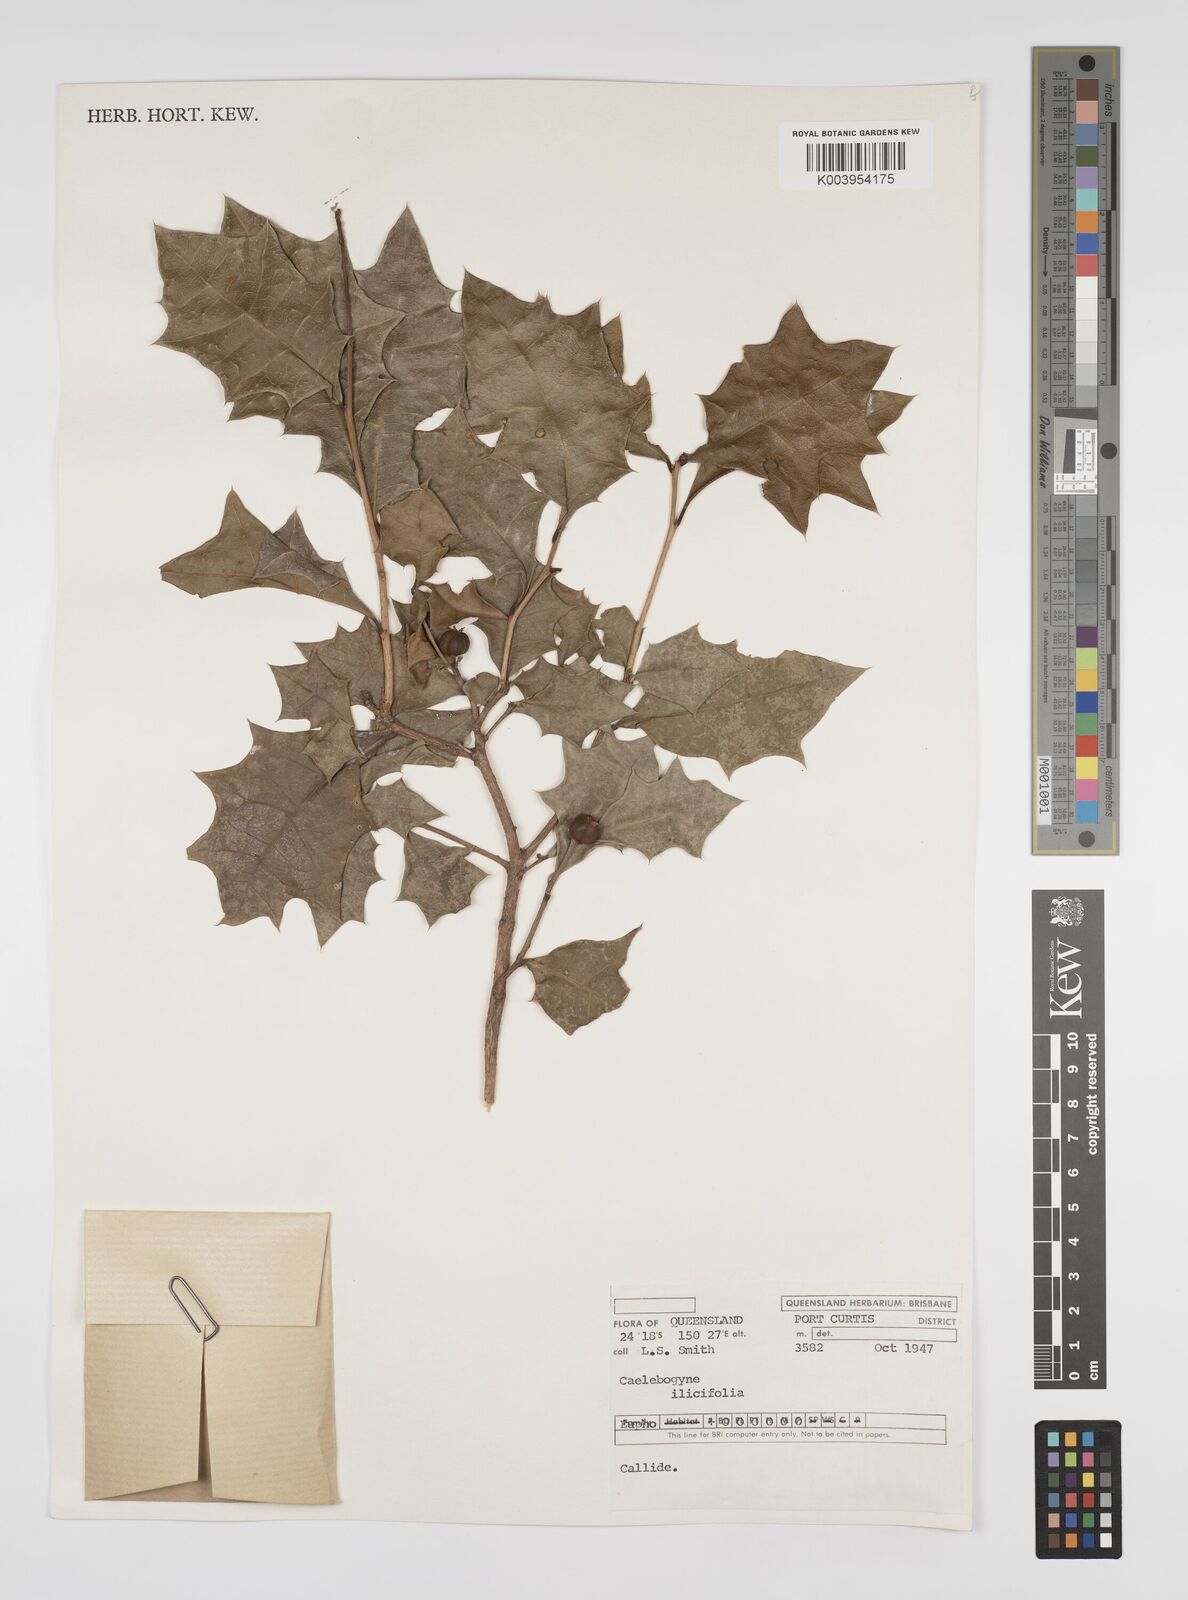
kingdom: Plantae
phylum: Tracheophyta
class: Magnoliopsida
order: Malpighiales
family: Euphorbiaceae
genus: Alchornea
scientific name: Alchornea ilicifolia
